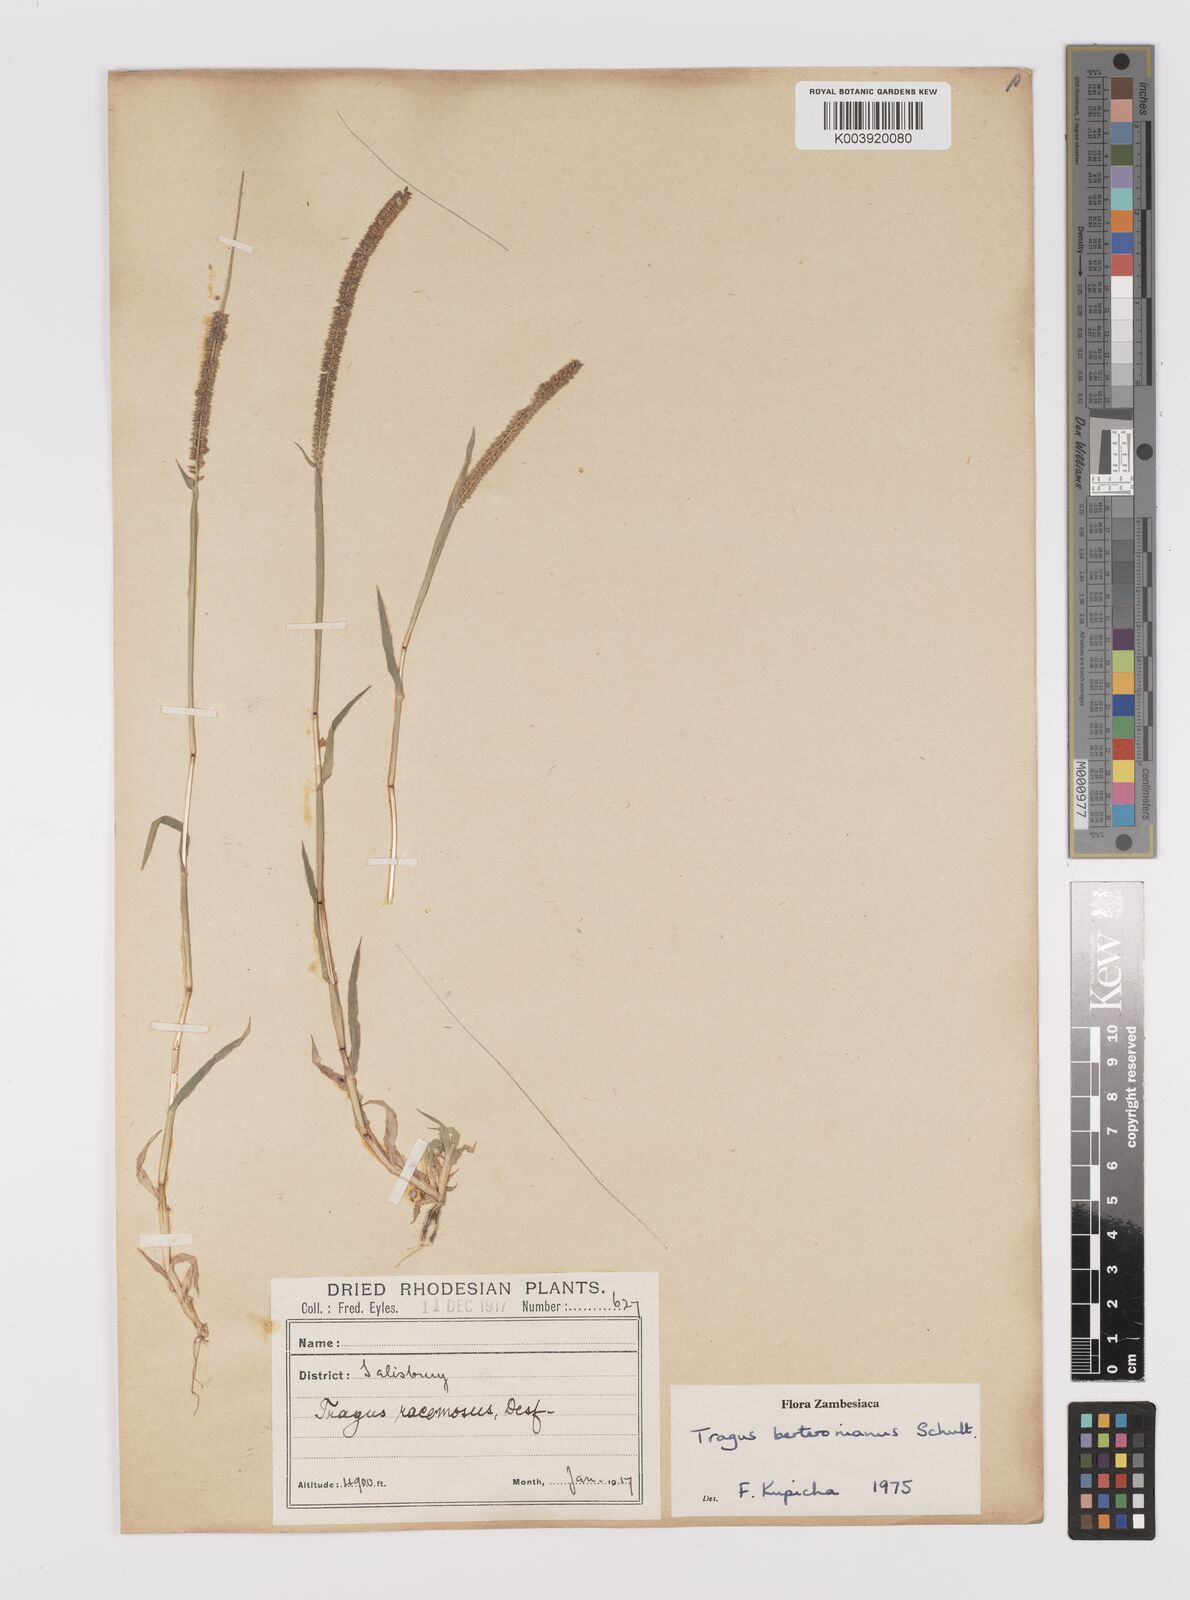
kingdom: Plantae
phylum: Tracheophyta
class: Liliopsida
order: Poales
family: Poaceae
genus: Tragus
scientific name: Tragus berteronianus
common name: African bur-grass
